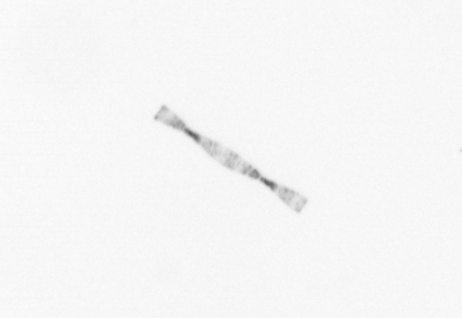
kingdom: Chromista
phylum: Ochrophyta
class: Bacillariophyceae
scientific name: Bacillariophyceae
